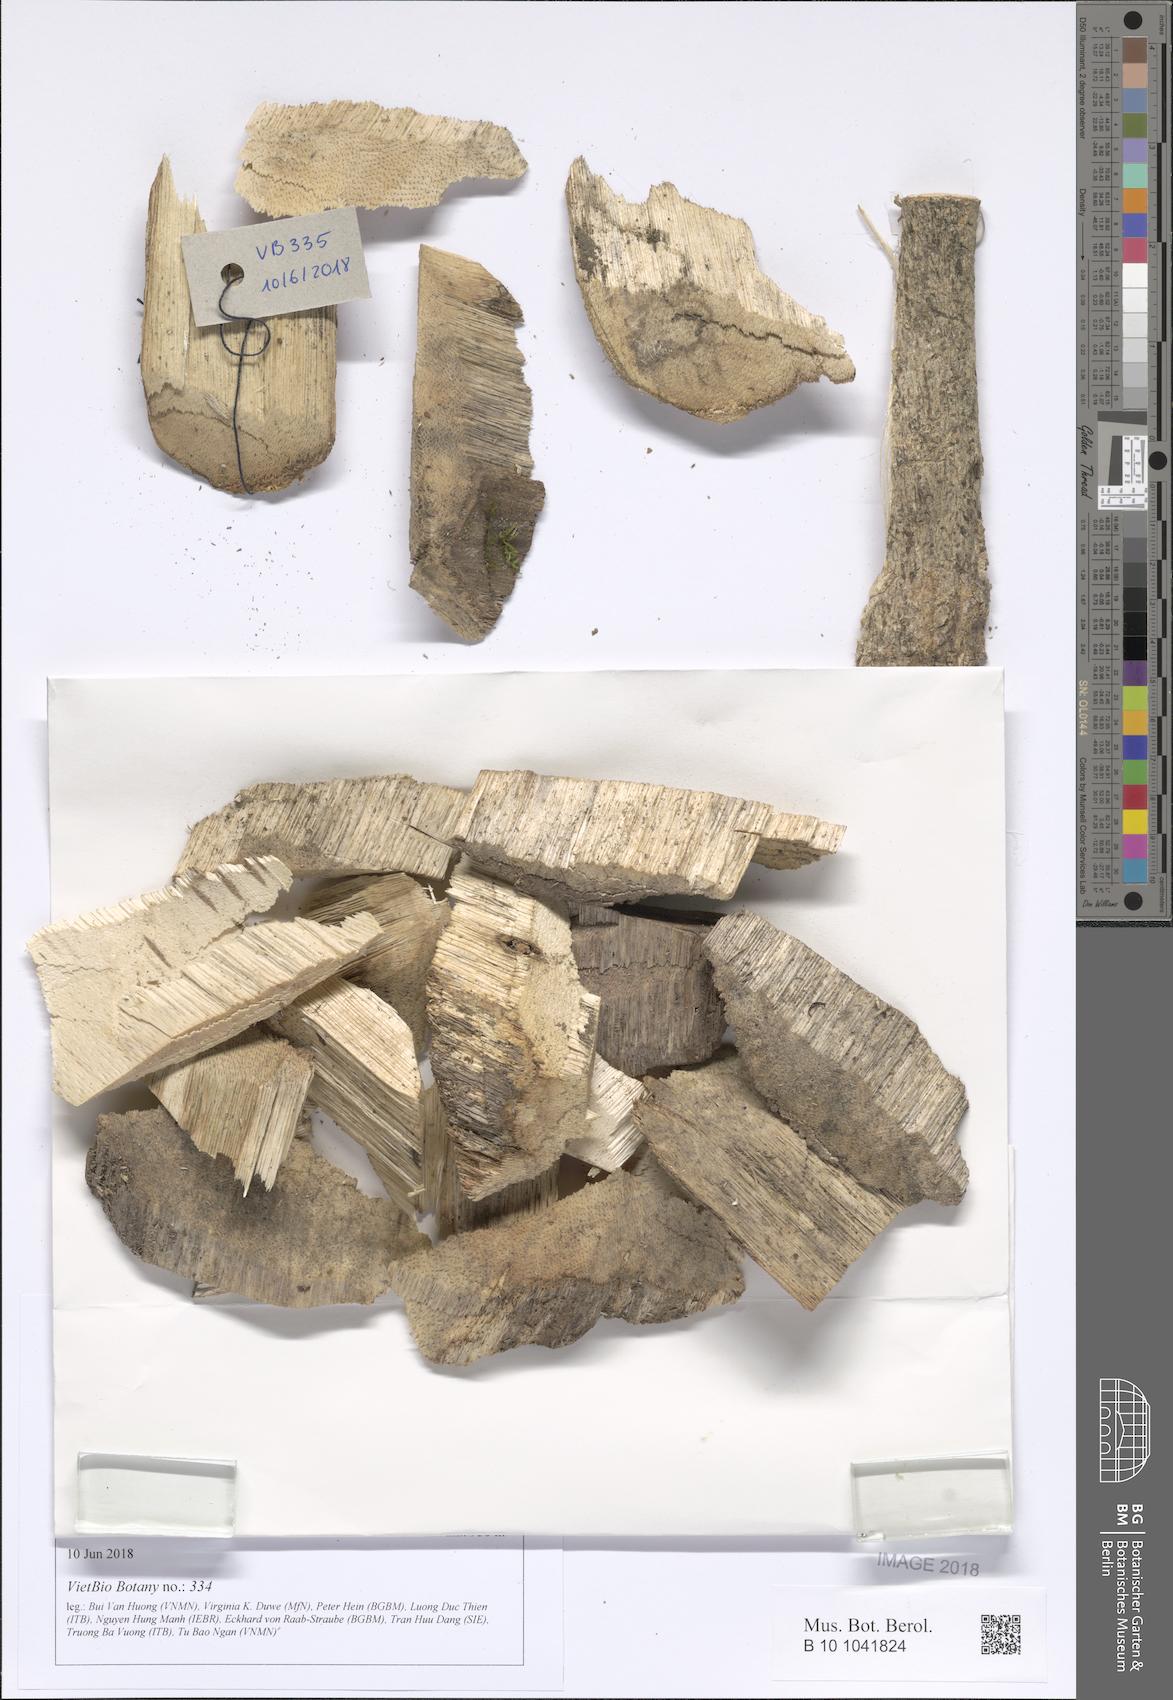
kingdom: Plantae
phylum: Tracheophyta
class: Magnoliopsida
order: Malvales
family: Thymelaeaceae
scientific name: Thymelaeaceae
